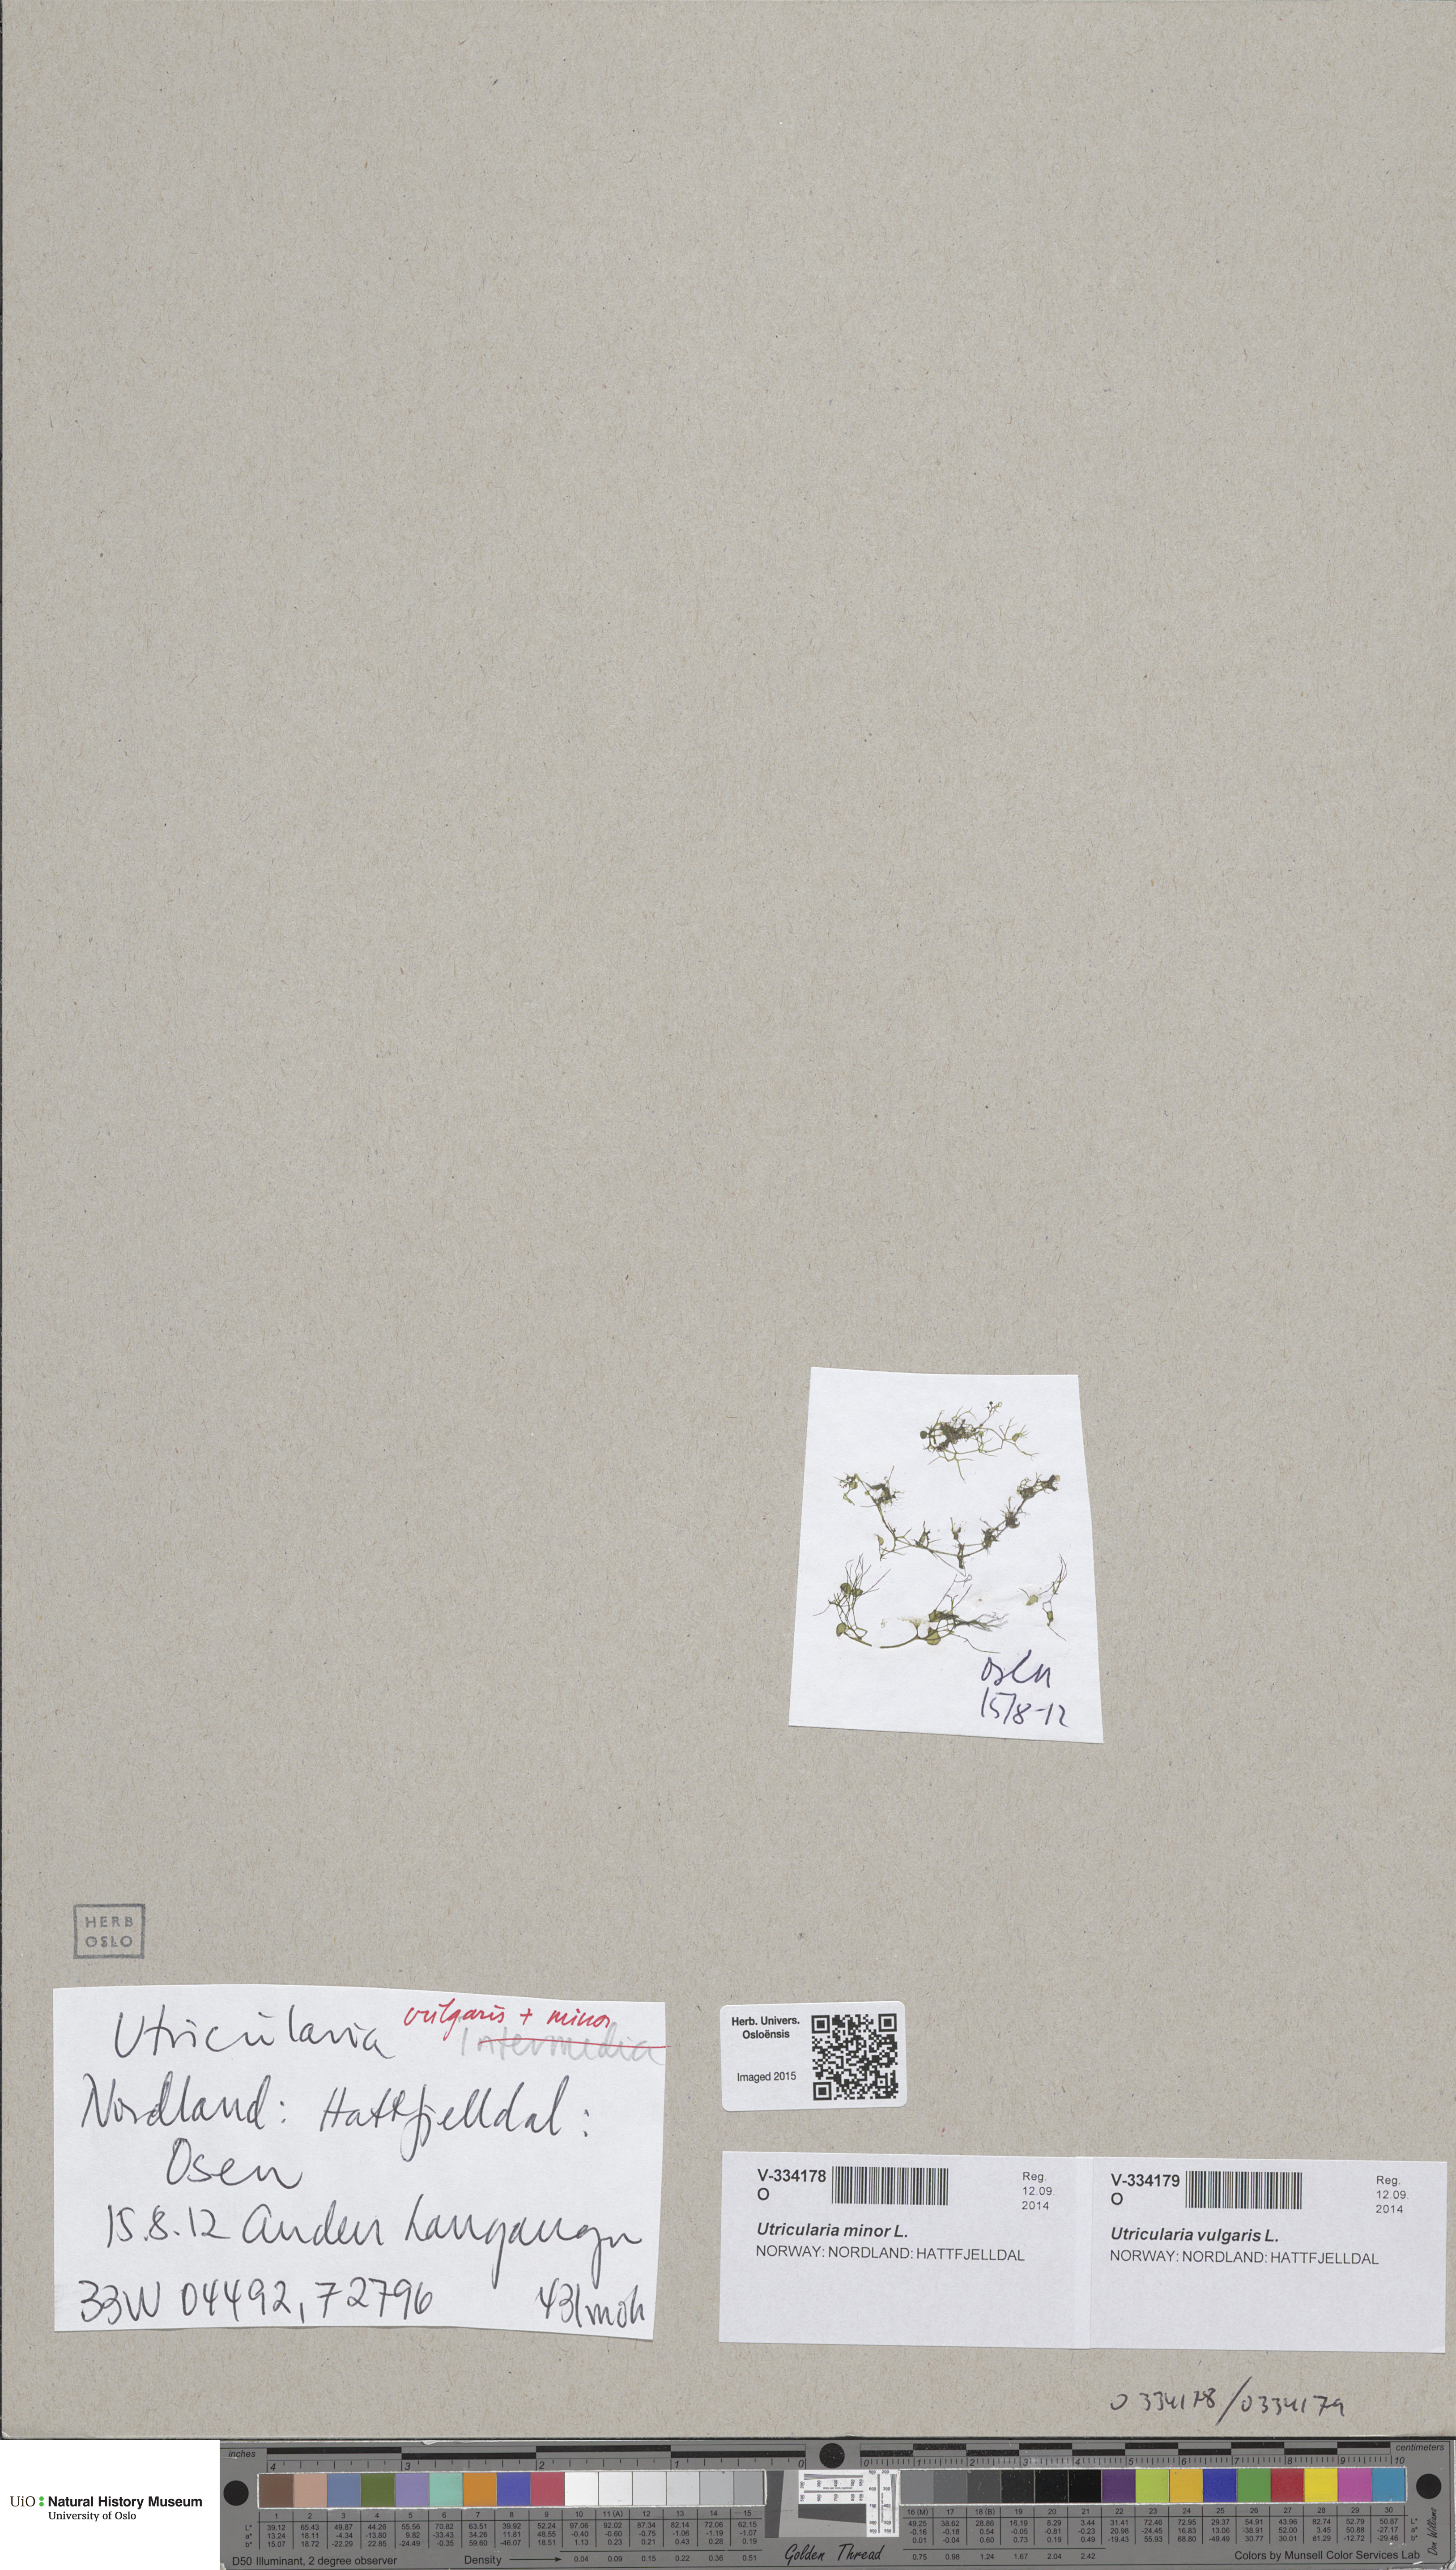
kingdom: Plantae
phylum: Tracheophyta
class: Magnoliopsida
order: Lamiales
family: Lentibulariaceae
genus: Utricularia
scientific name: Utricularia vulgaris
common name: Greater bladderwort
